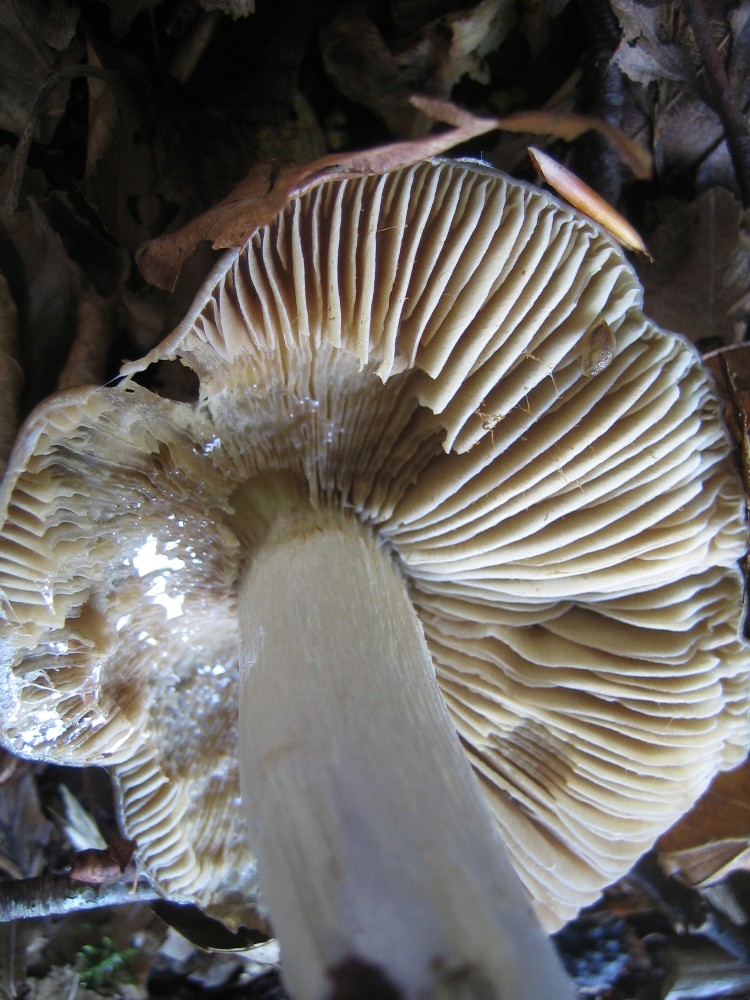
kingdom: Fungi
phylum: Basidiomycota
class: Agaricomycetes
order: Agaricales
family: Cortinariaceae
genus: Cortinarius
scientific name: Cortinarius elatior
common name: høj slørhat
